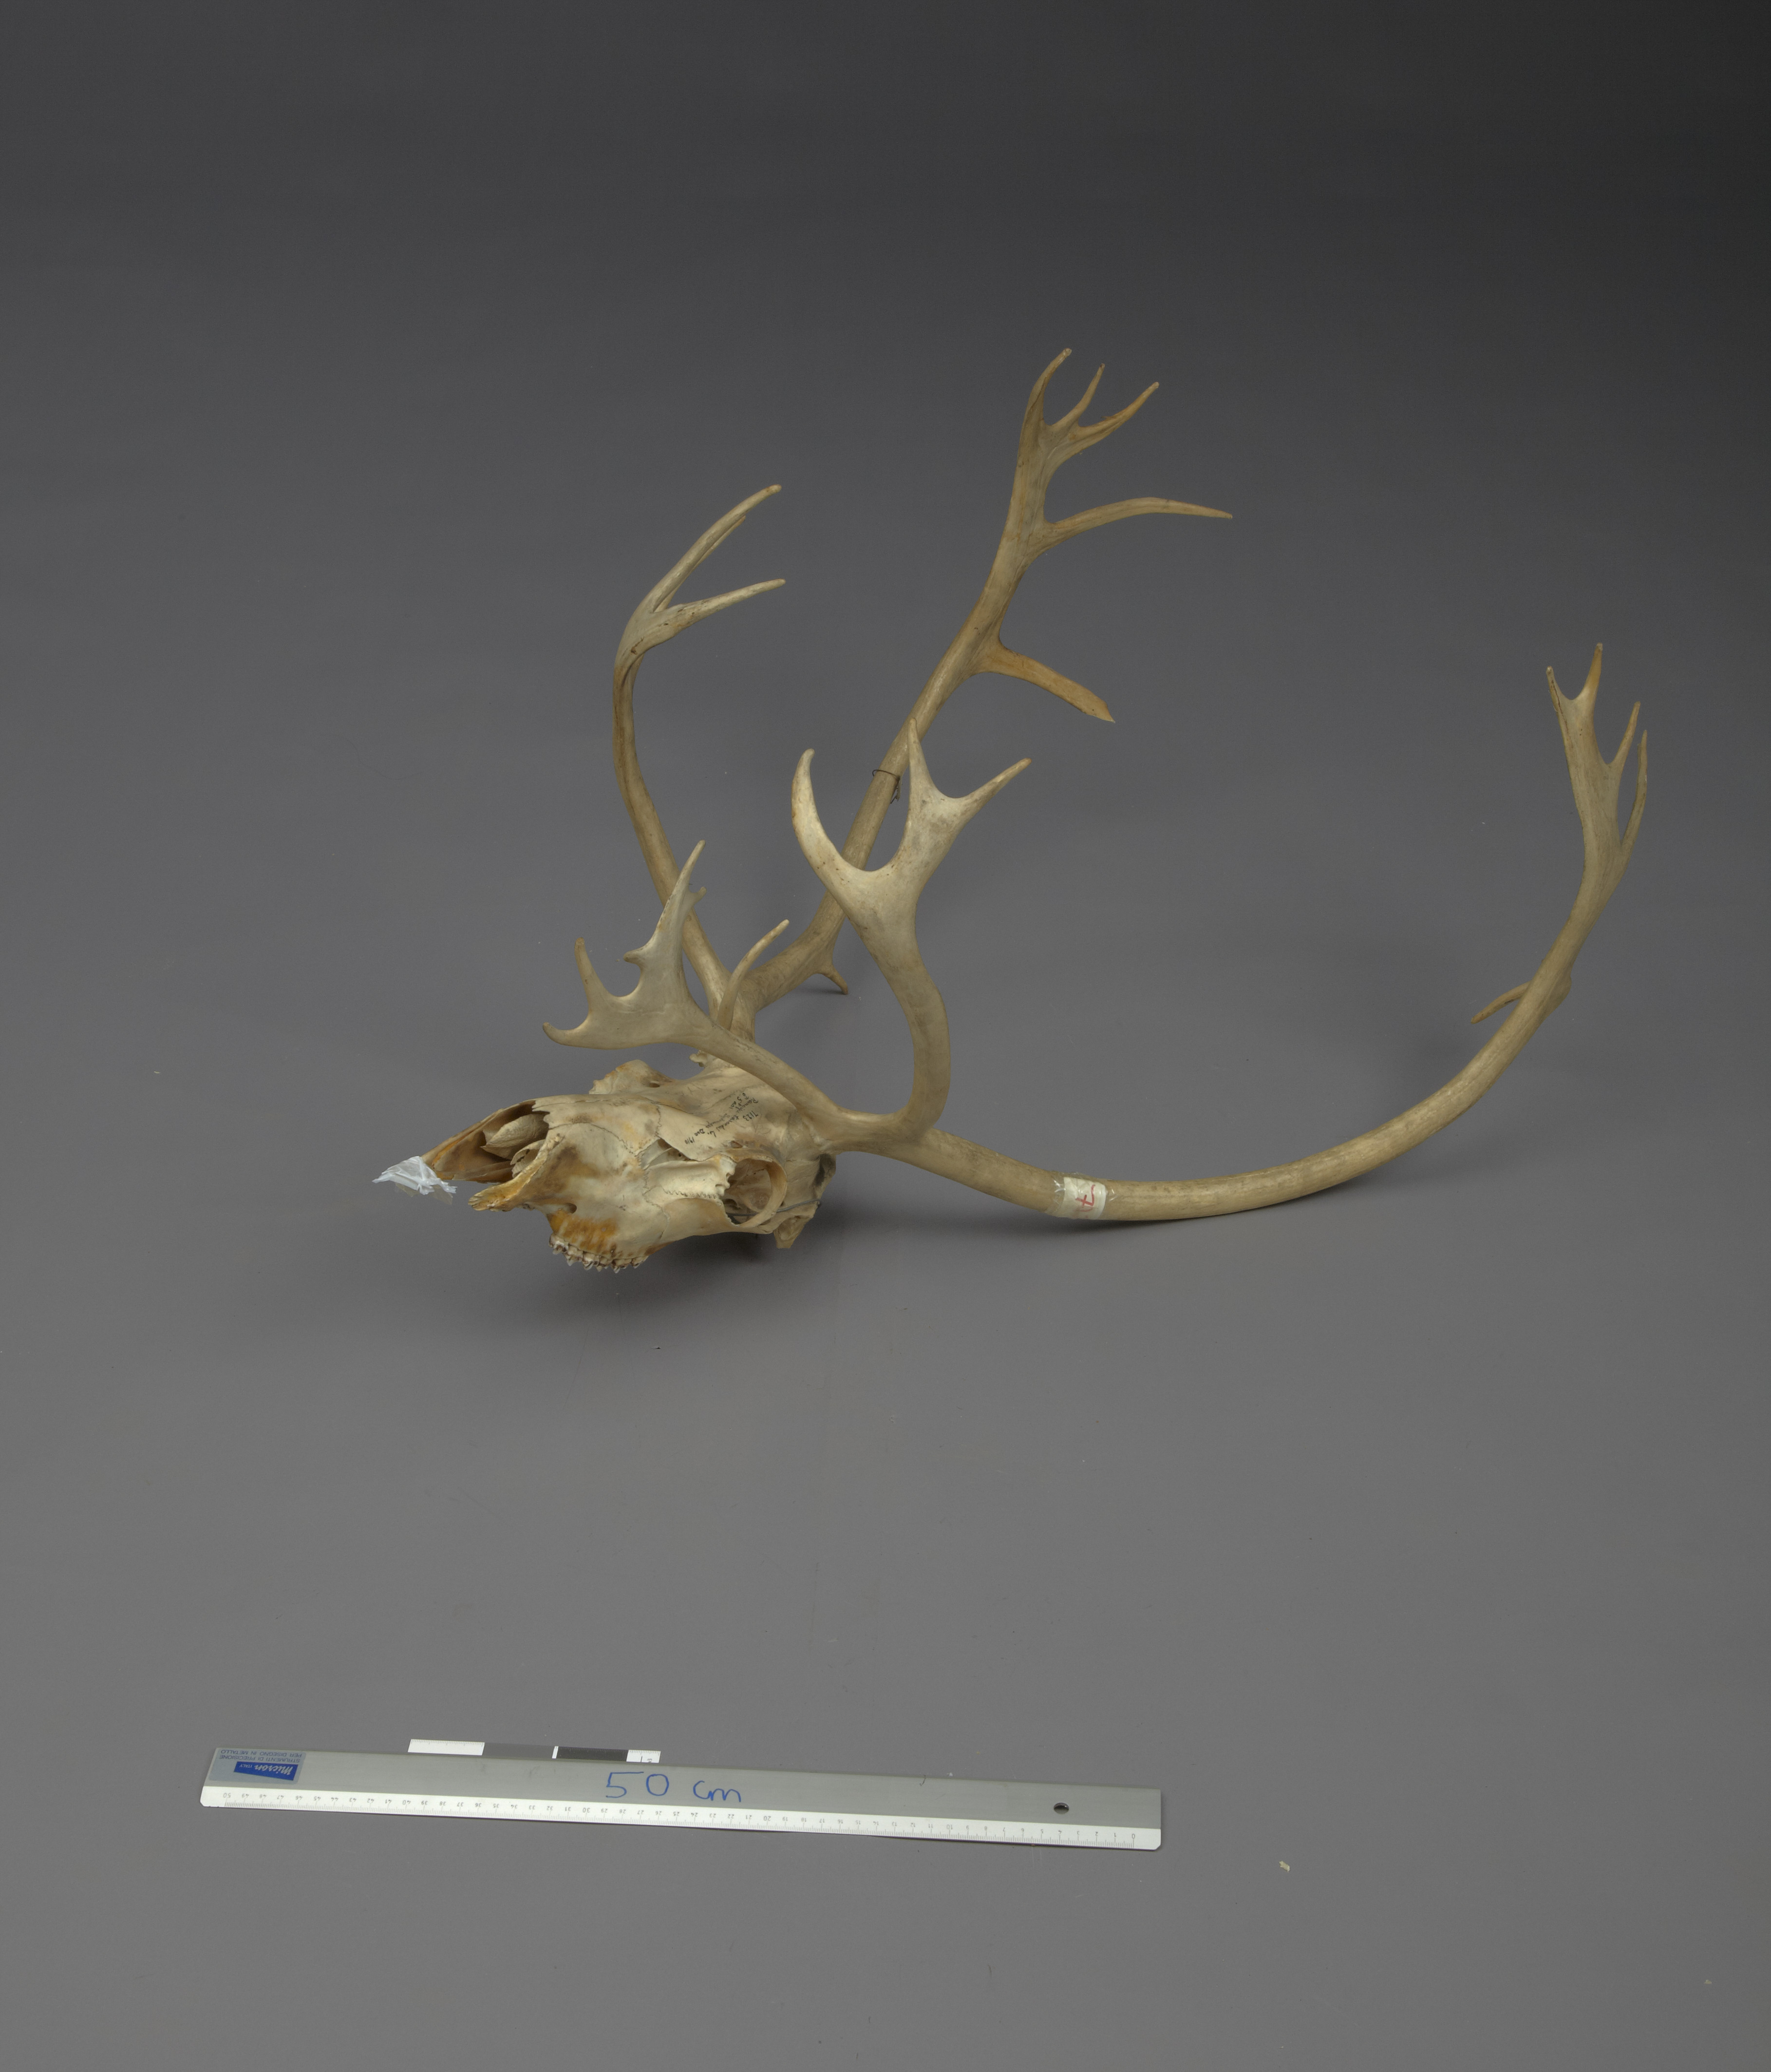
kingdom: Animalia
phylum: Chordata
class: Mammalia
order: Artiodactyla
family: Cervidae
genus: Rangifer
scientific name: Rangifer tarandus
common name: Reindeer
